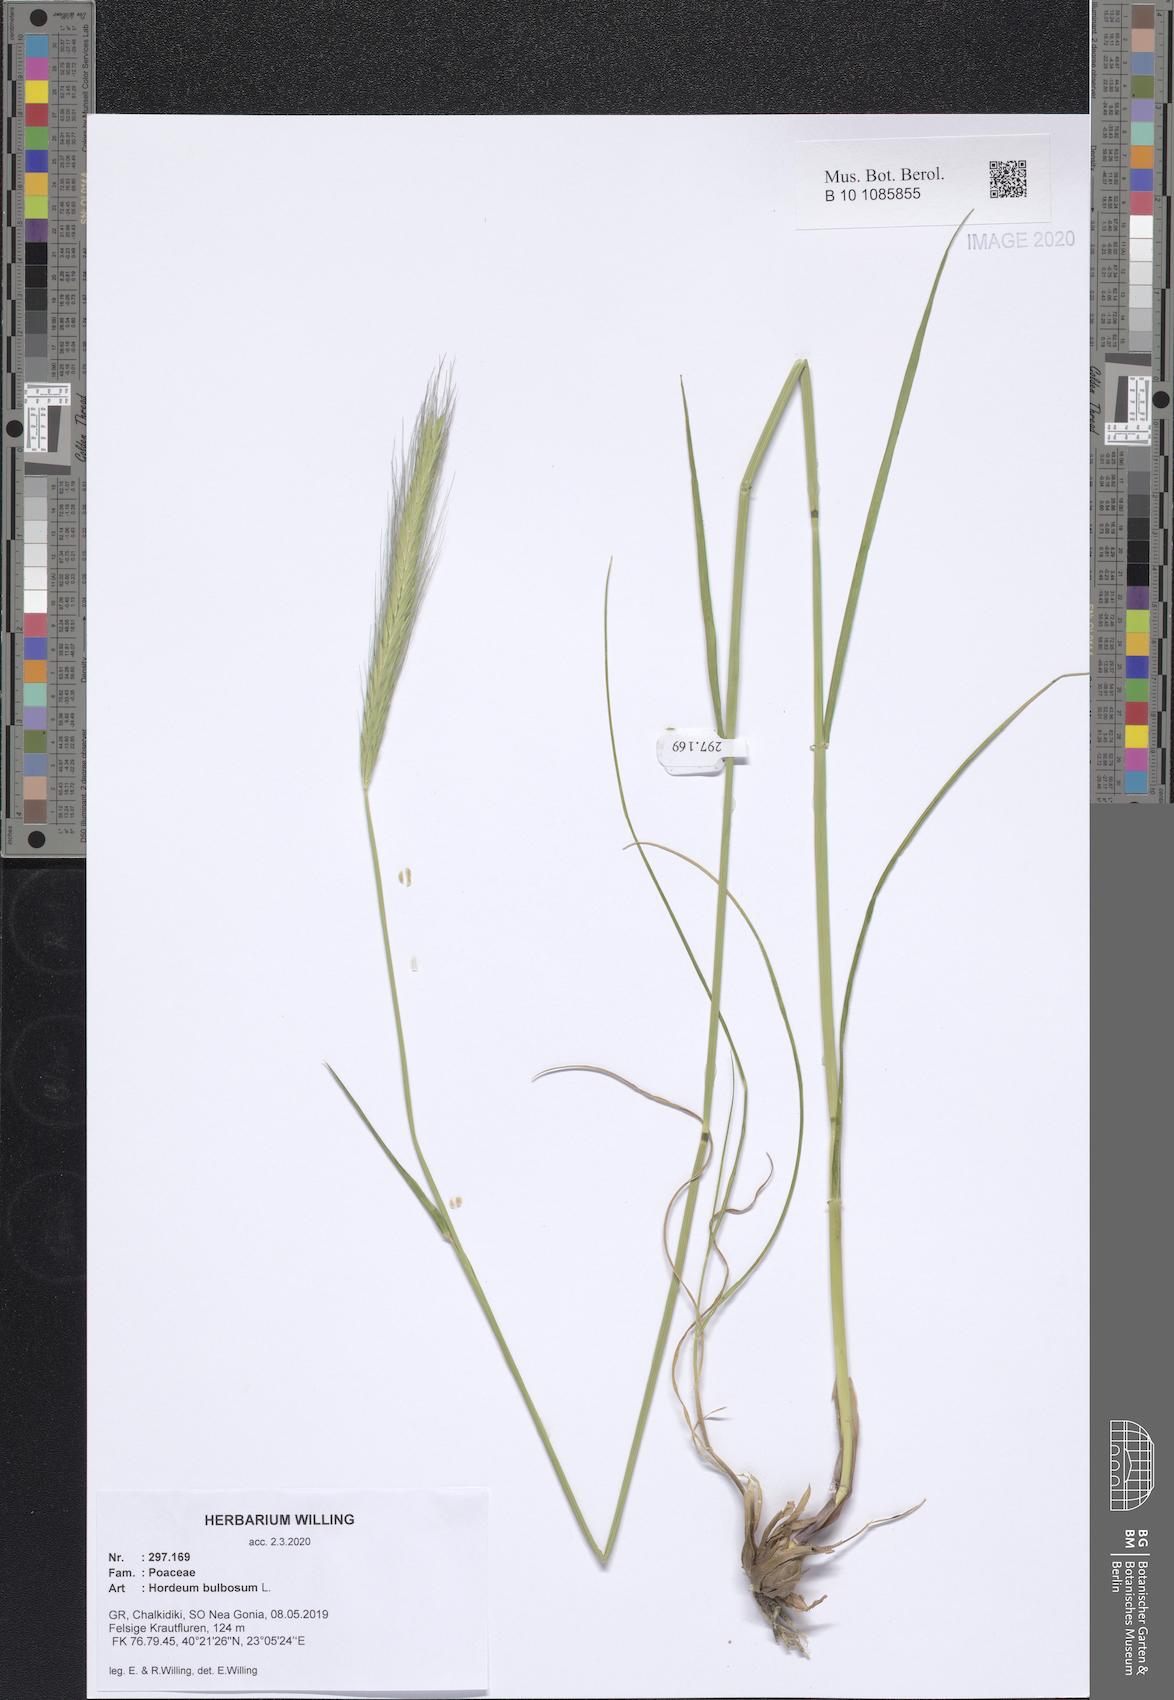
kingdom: Plantae
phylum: Tracheophyta
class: Liliopsida
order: Poales
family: Poaceae
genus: Hordeum
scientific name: Hordeum bulbosum
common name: Bulbous barley
